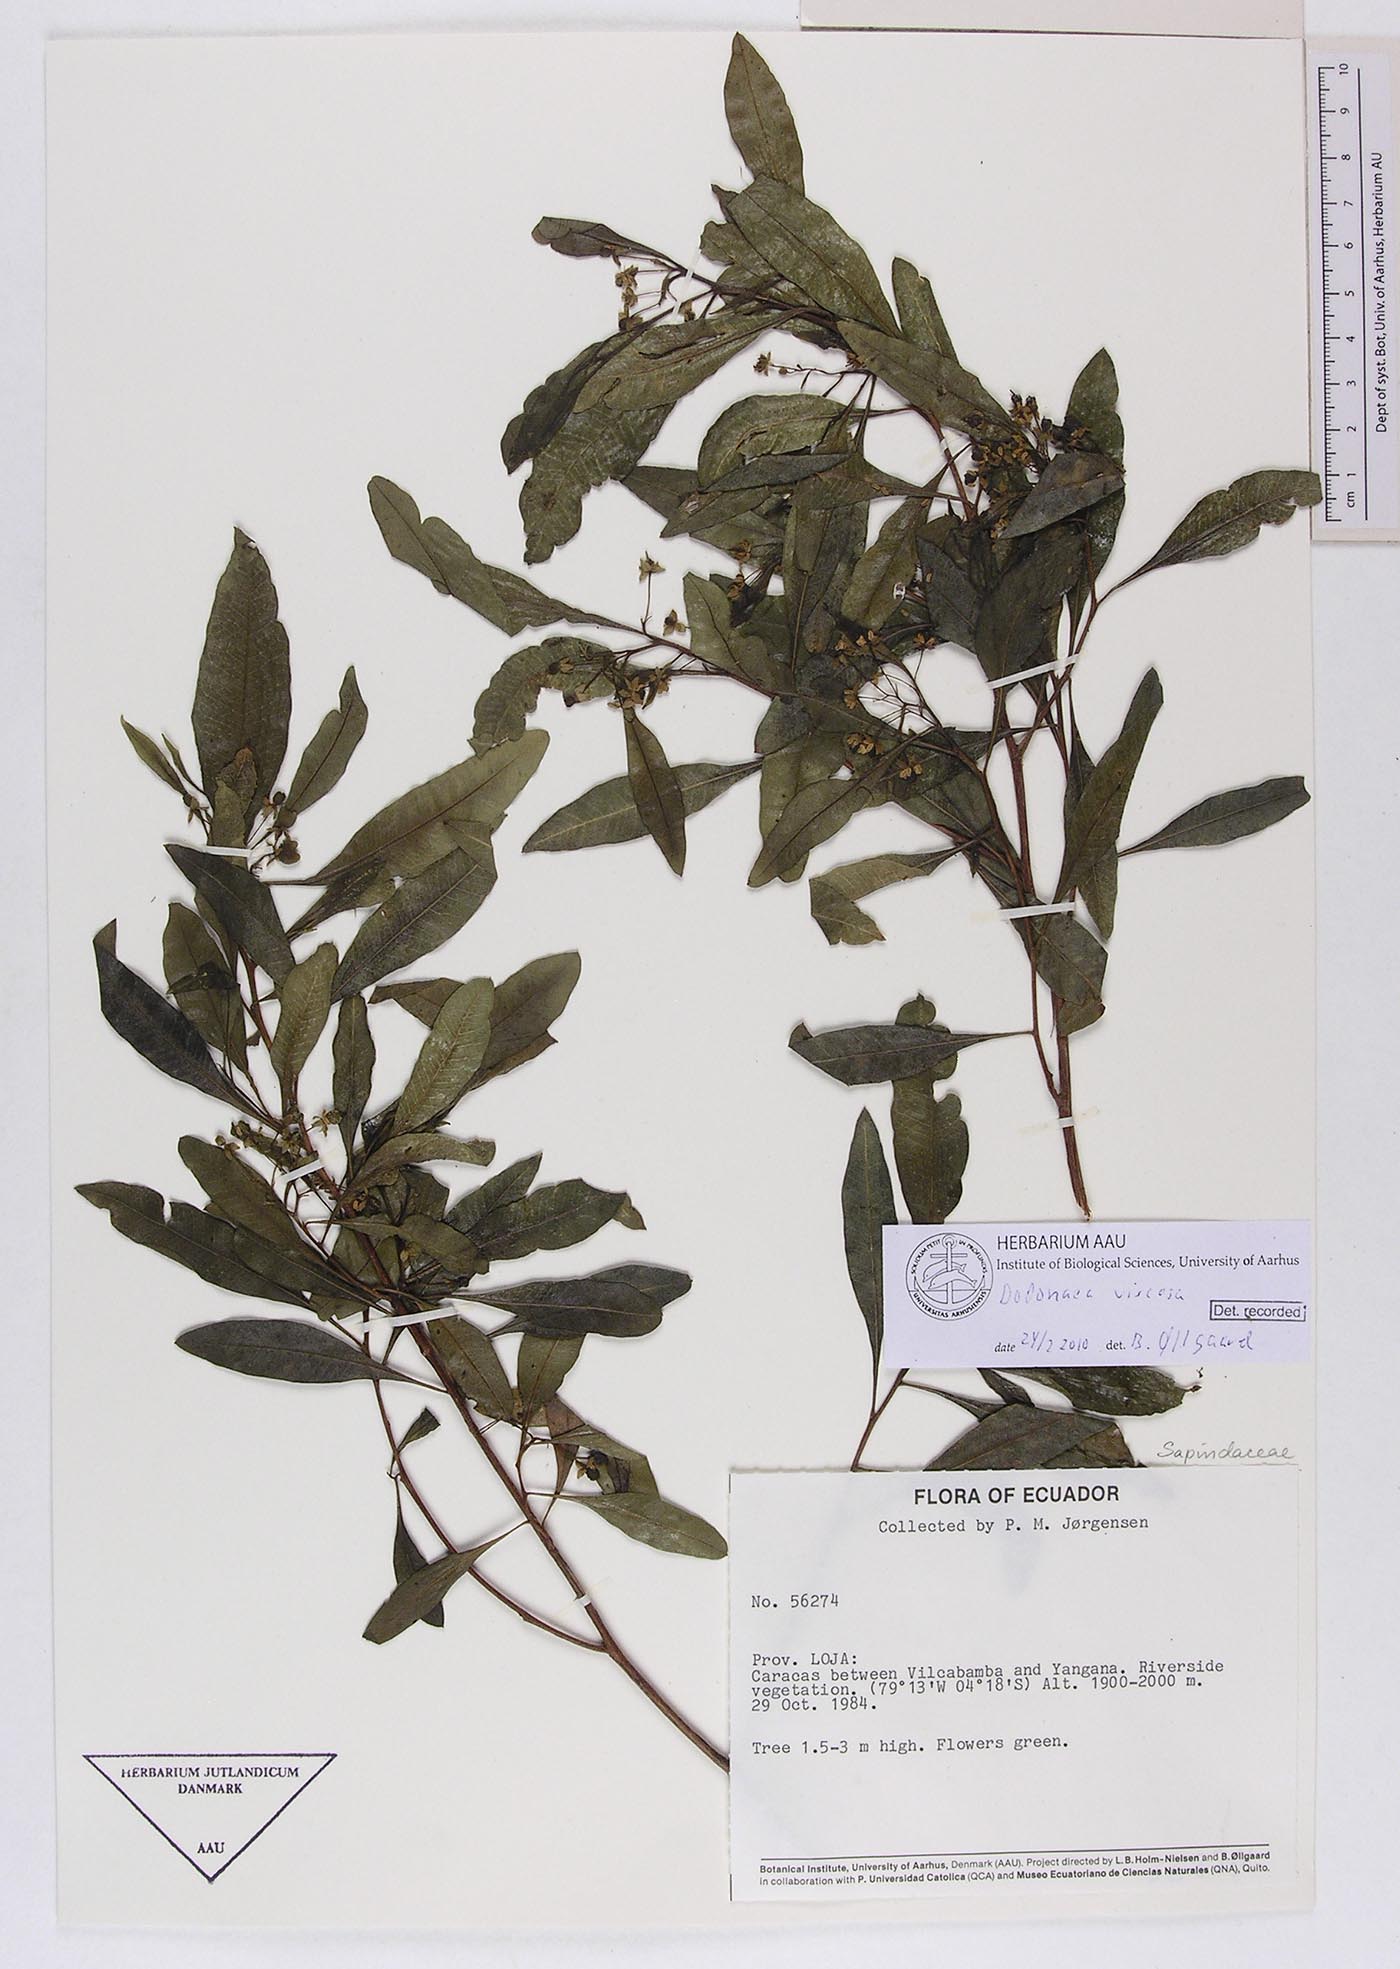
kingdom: Plantae
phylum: Tracheophyta
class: Magnoliopsida
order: Sapindales
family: Sapindaceae
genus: Dodonaea
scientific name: Dodonaea viscosa
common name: Hopbush
